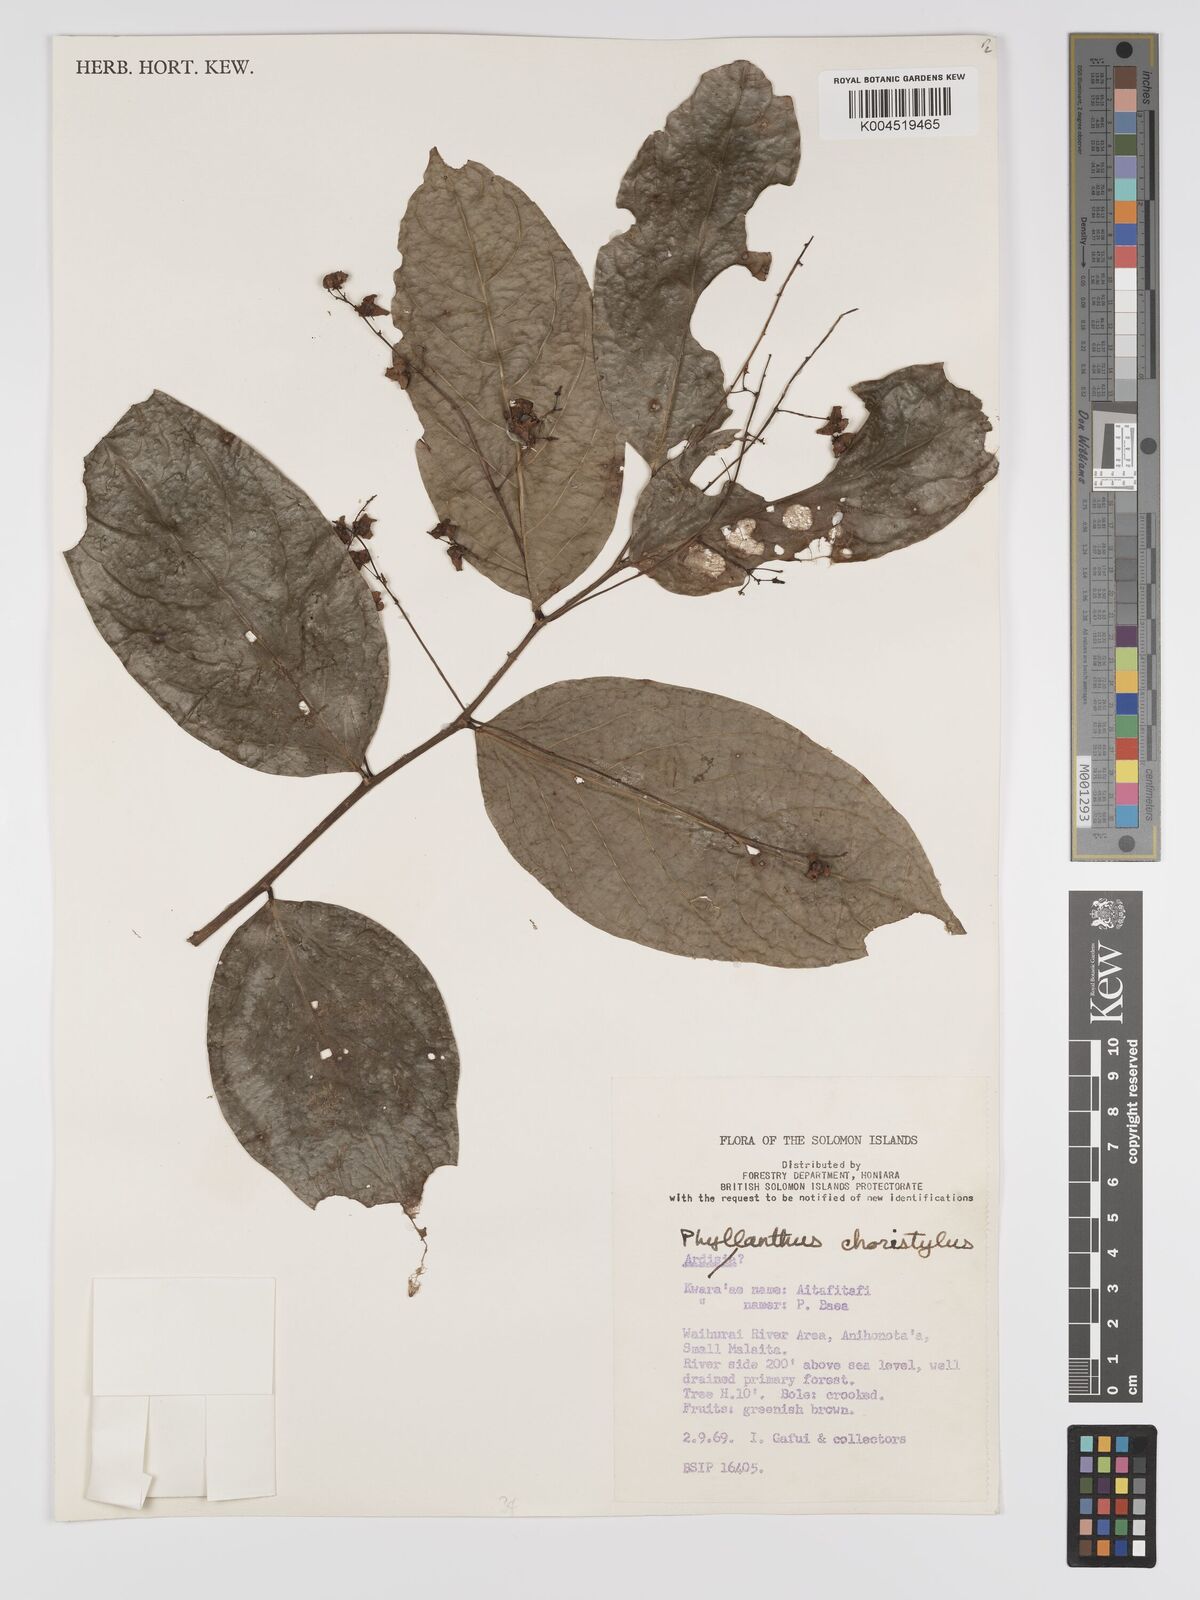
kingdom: Plantae
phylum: Tracheophyta
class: Magnoliopsida
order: Malpighiales
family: Phyllanthaceae
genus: Phyllanthus
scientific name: Phyllanthus clamboides
